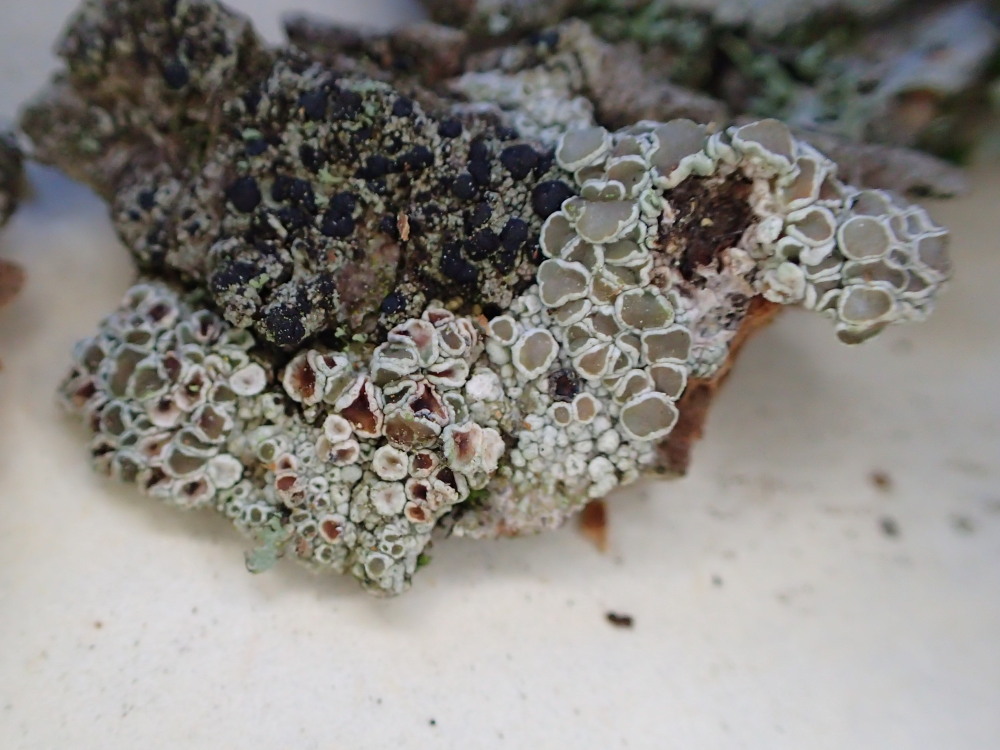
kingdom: Fungi
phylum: Ascomycota
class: Lecanoromycetes
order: Lecanorales
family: Lecanoraceae
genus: Lecanora
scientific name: Lecanora chlarotera
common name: brun kantskivelav
